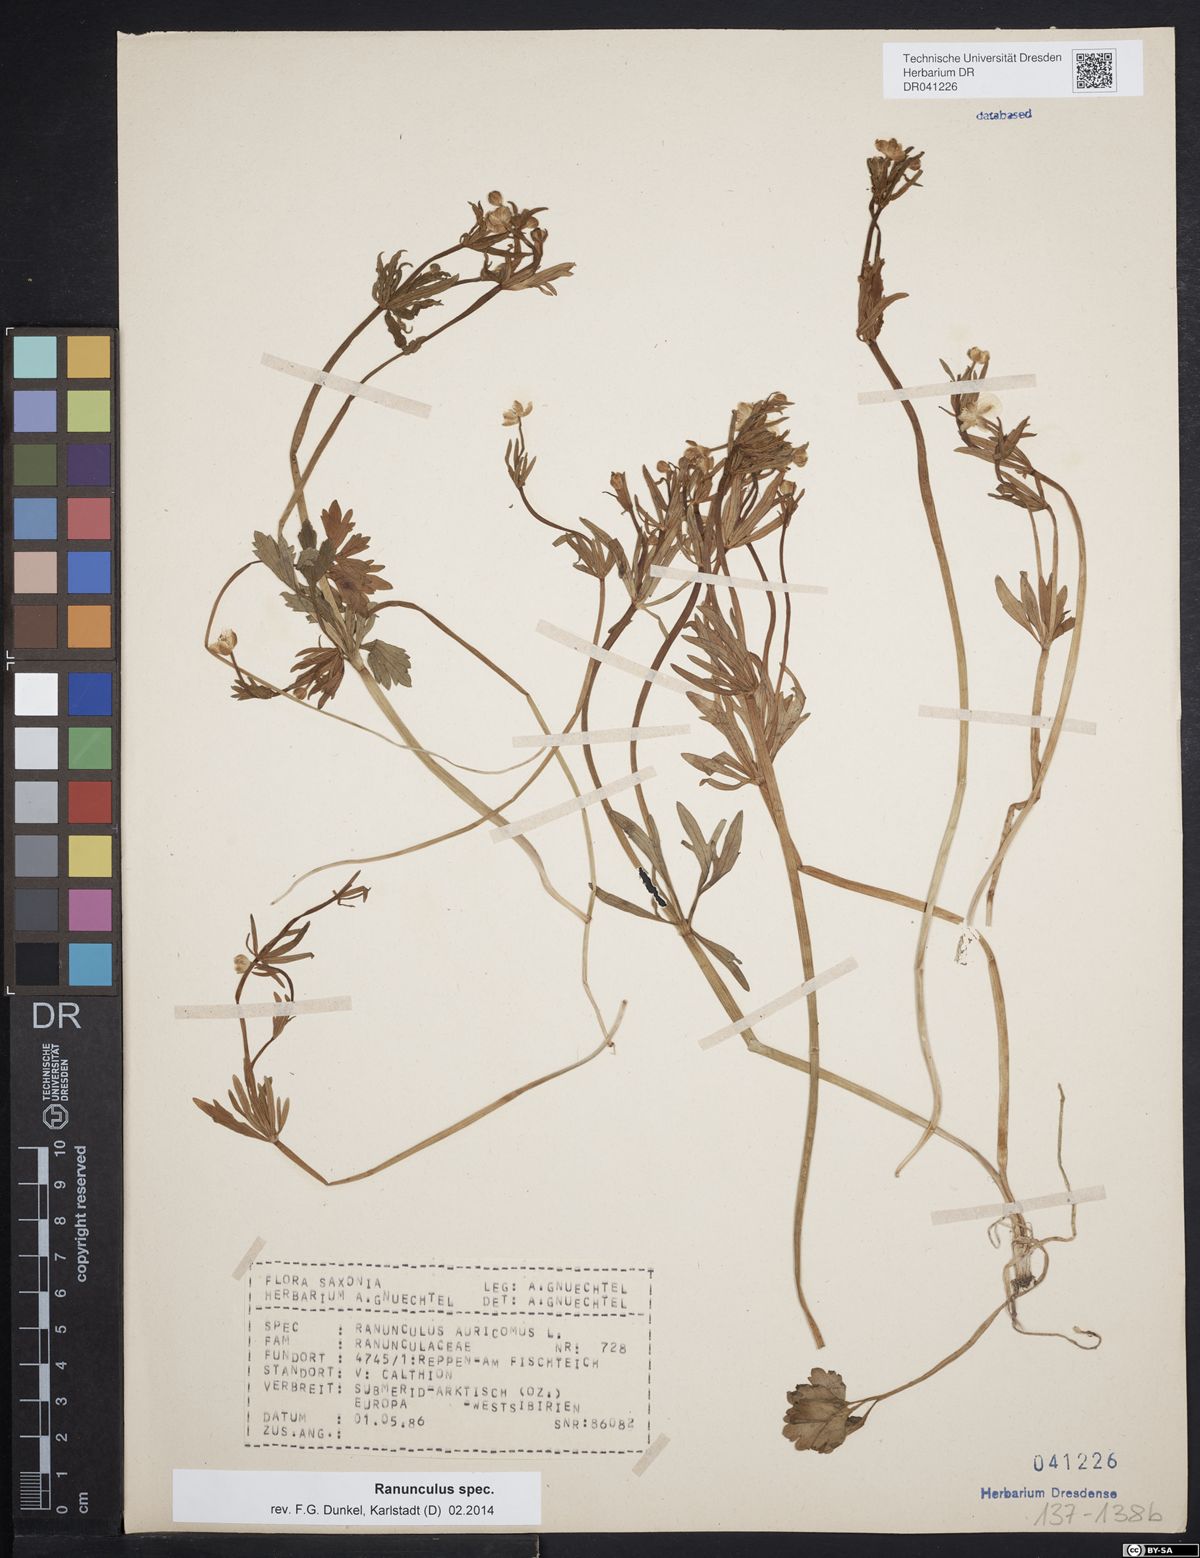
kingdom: Plantae
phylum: Tracheophyta
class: Magnoliopsida
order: Ranunculales
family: Ranunculaceae
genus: Ranunculus
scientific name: Ranunculus auricomus
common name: Goldilocks buttercup
